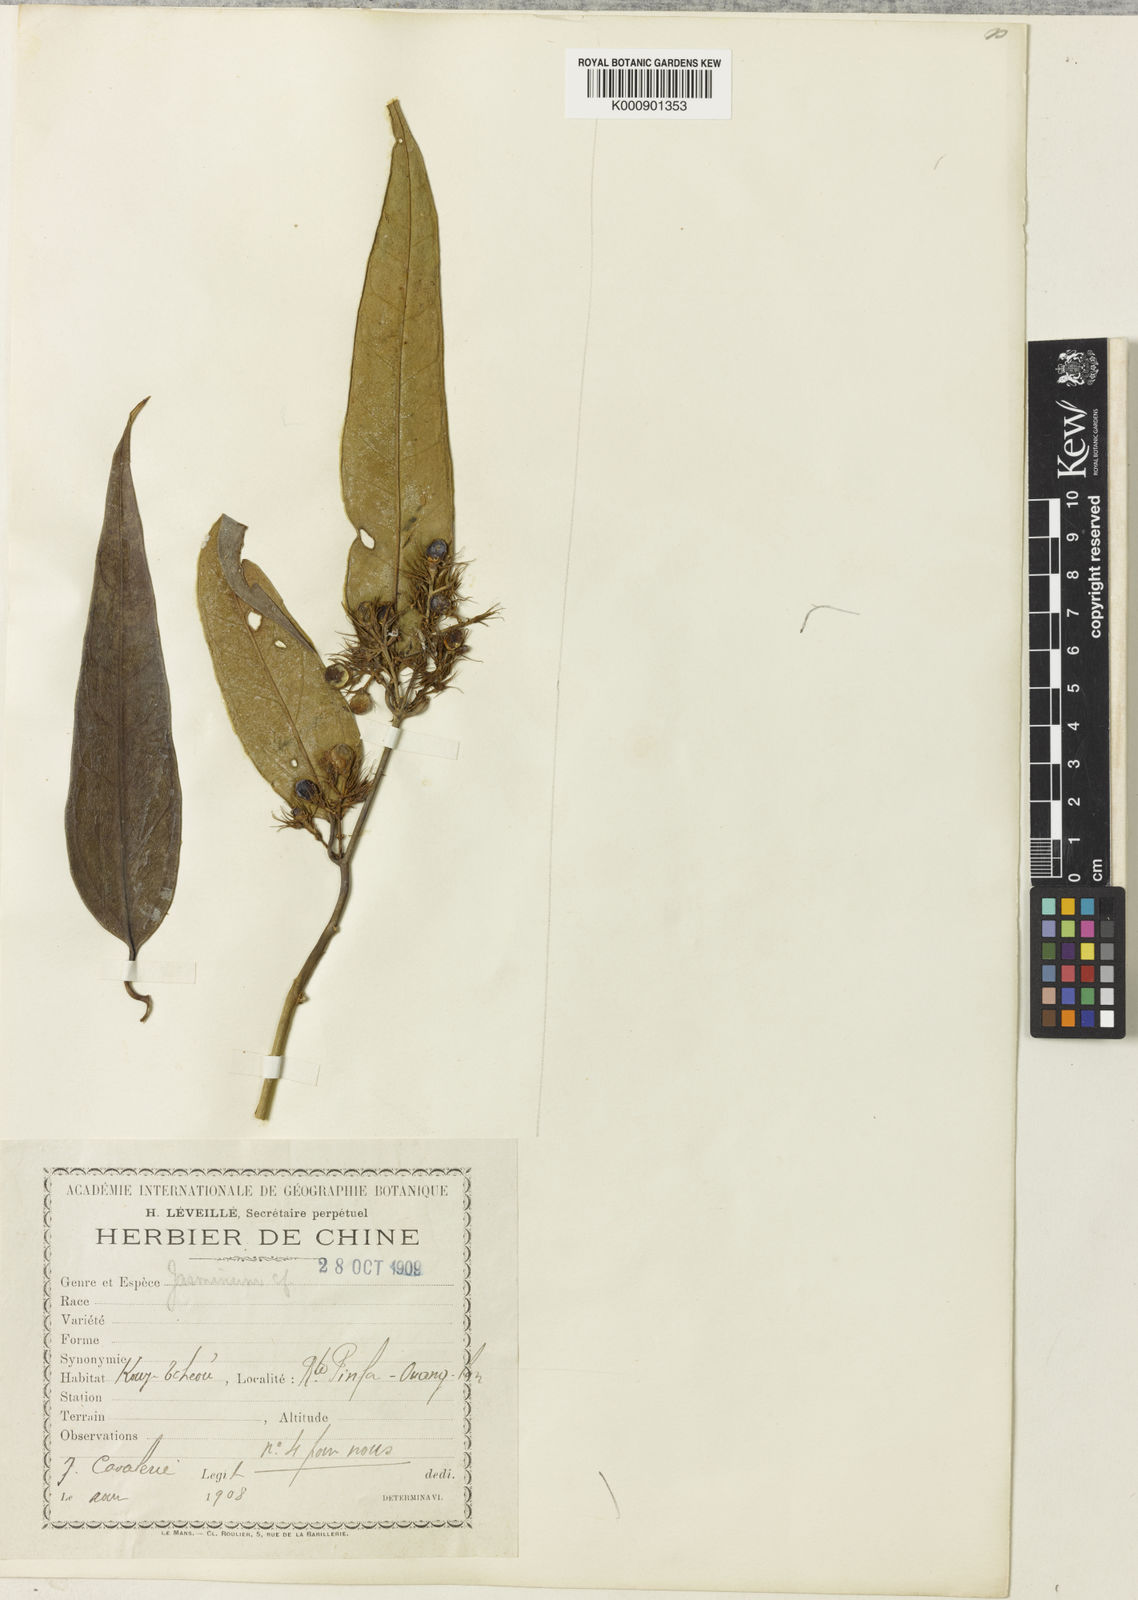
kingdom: Plantae
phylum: Tracheophyta
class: Magnoliopsida
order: Lamiales
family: Oleaceae
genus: Jasminum
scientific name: Jasminum
